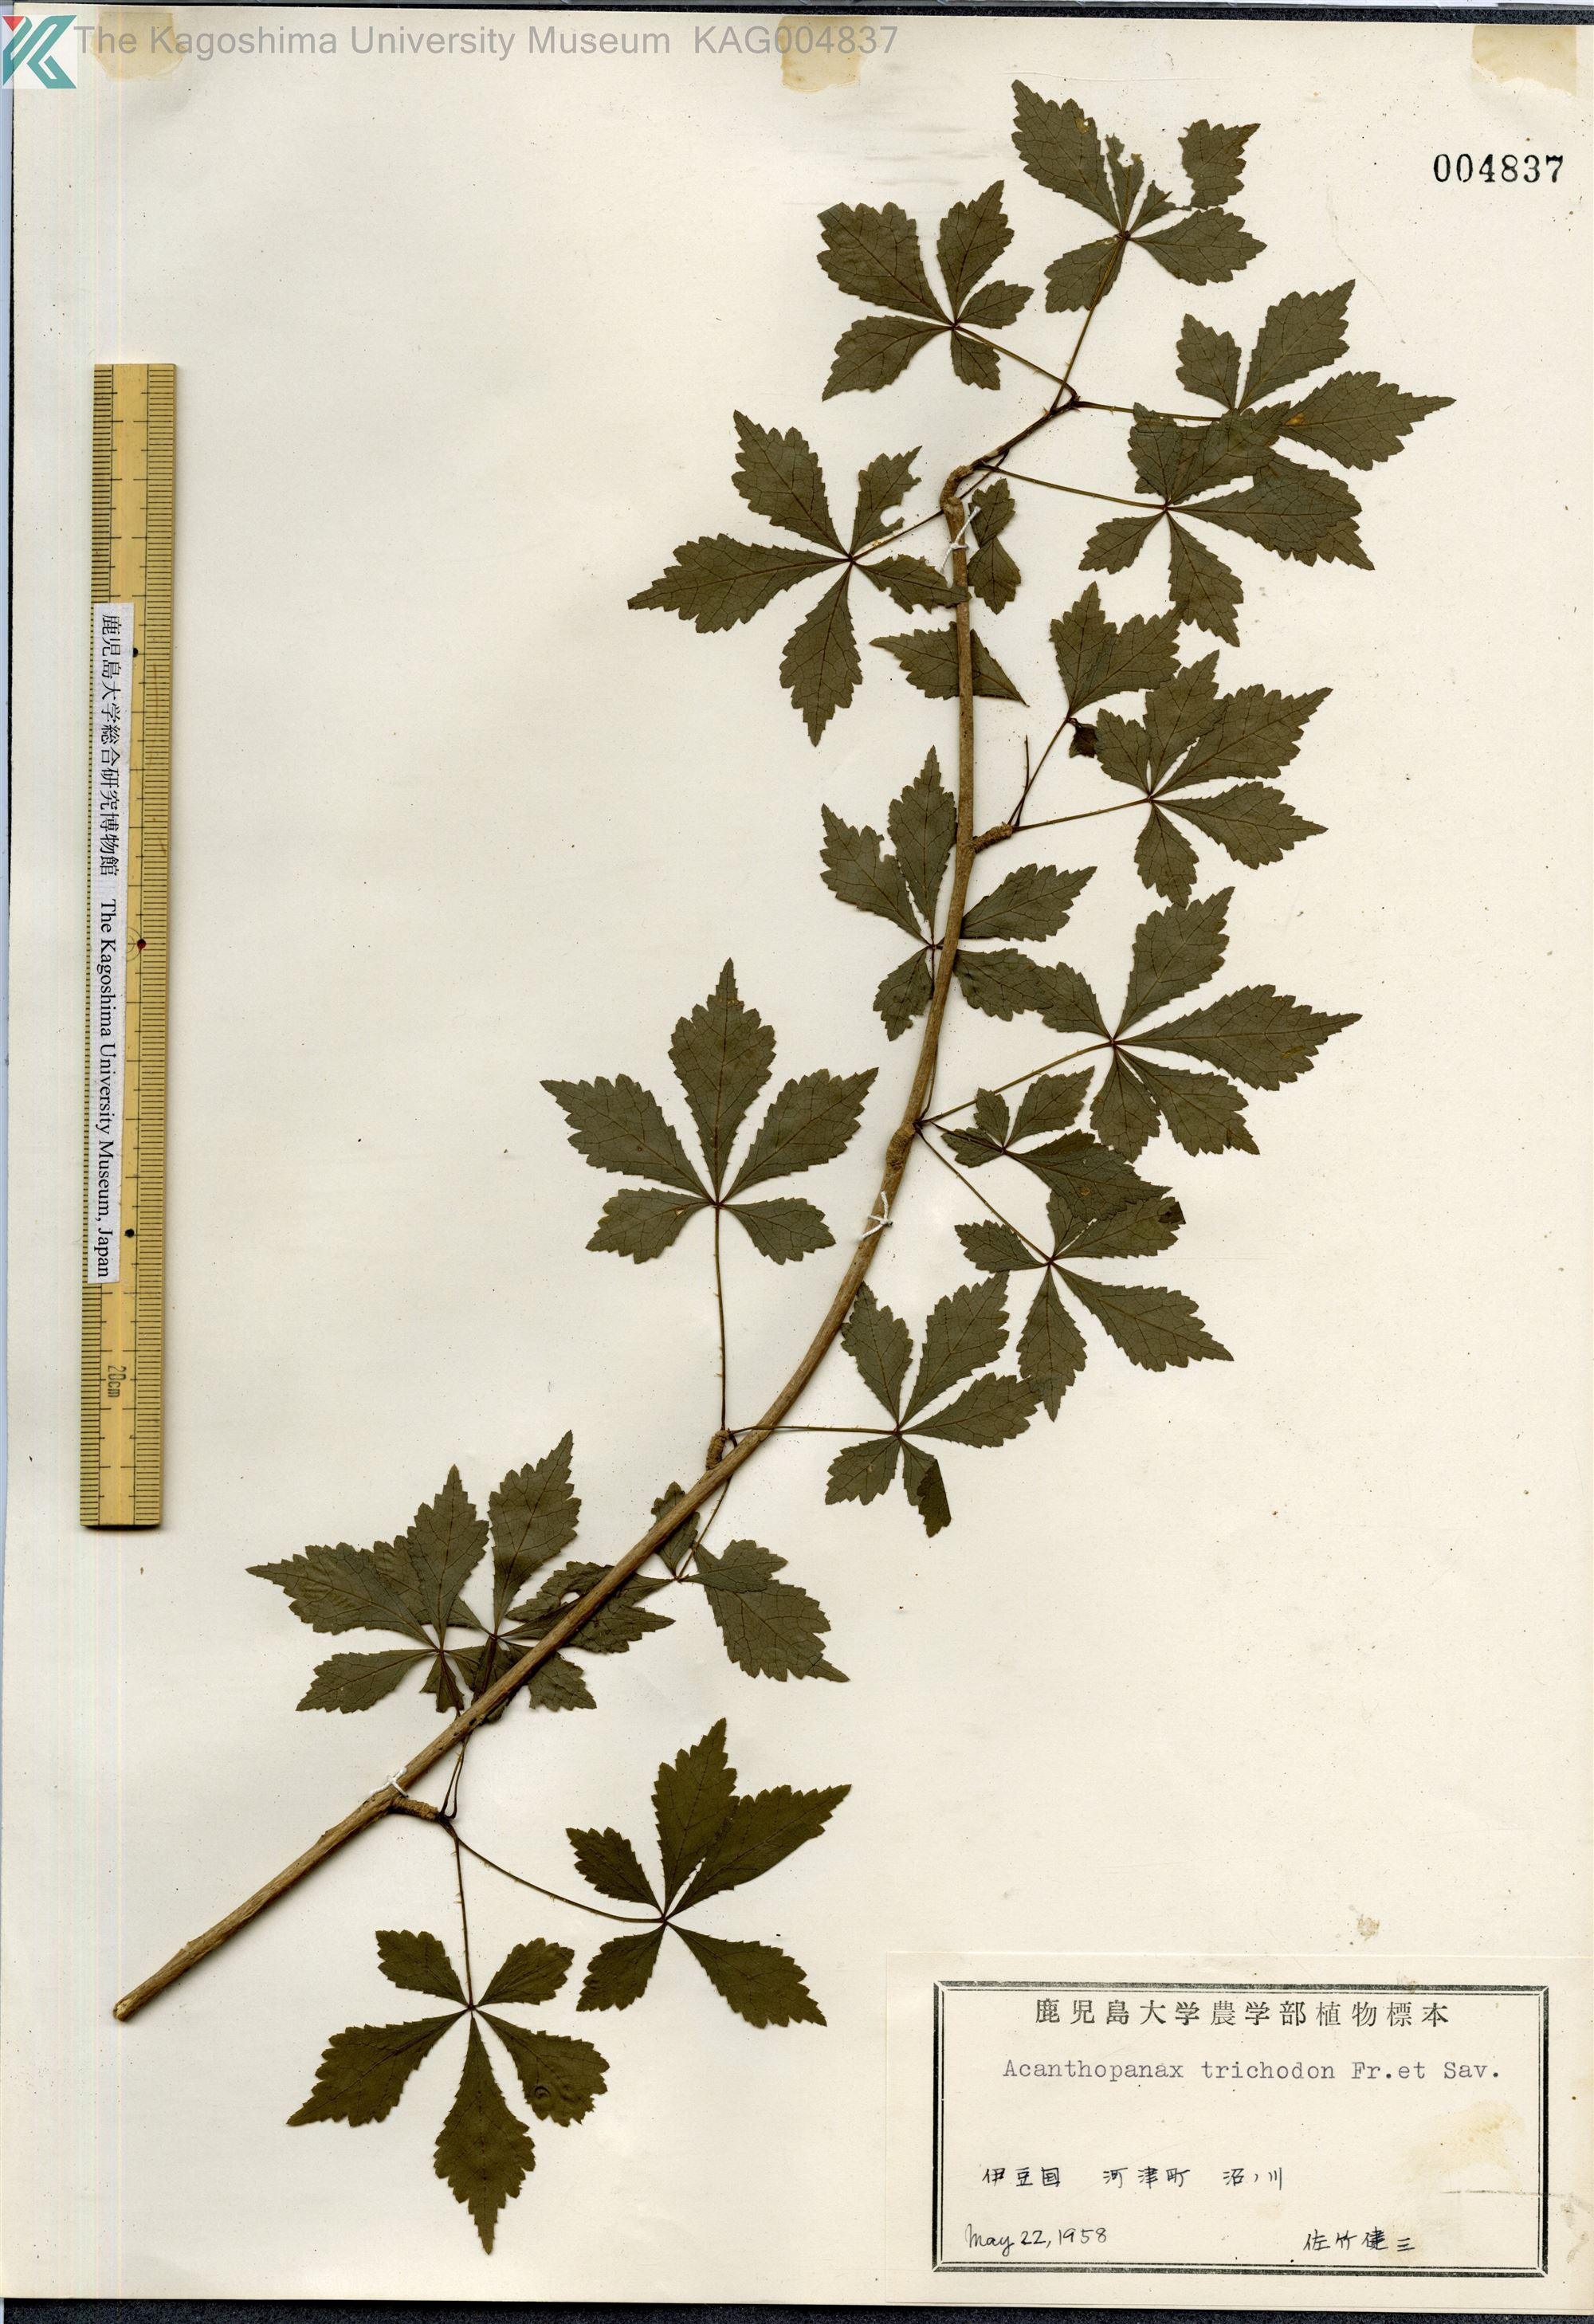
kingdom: Plantae
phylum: Tracheophyta
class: Magnoliopsida
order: Apiales
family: Araliaceae
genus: Eleutherococcus
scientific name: Eleutherococcus trichodon
